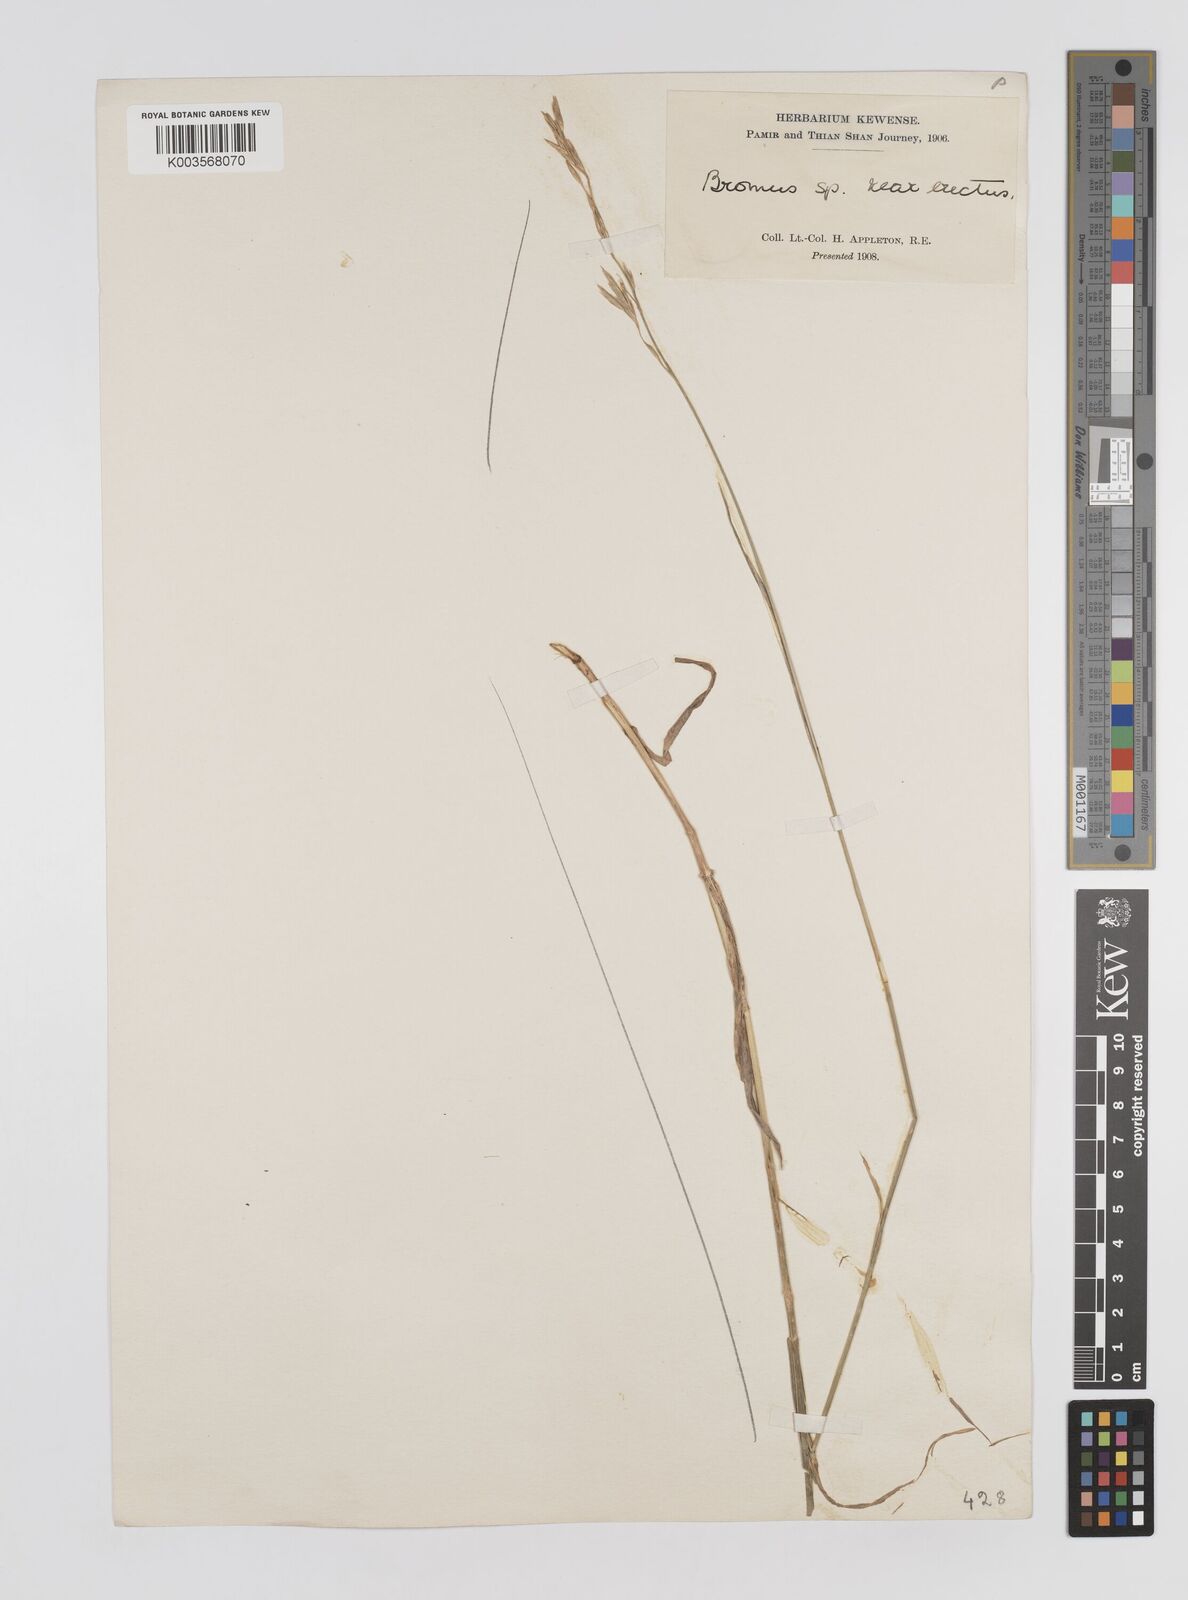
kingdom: Plantae
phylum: Tracheophyta
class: Liliopsida
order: Poales
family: Poaceae
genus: Bromus
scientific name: Bromus riparius
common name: Meadow brome
